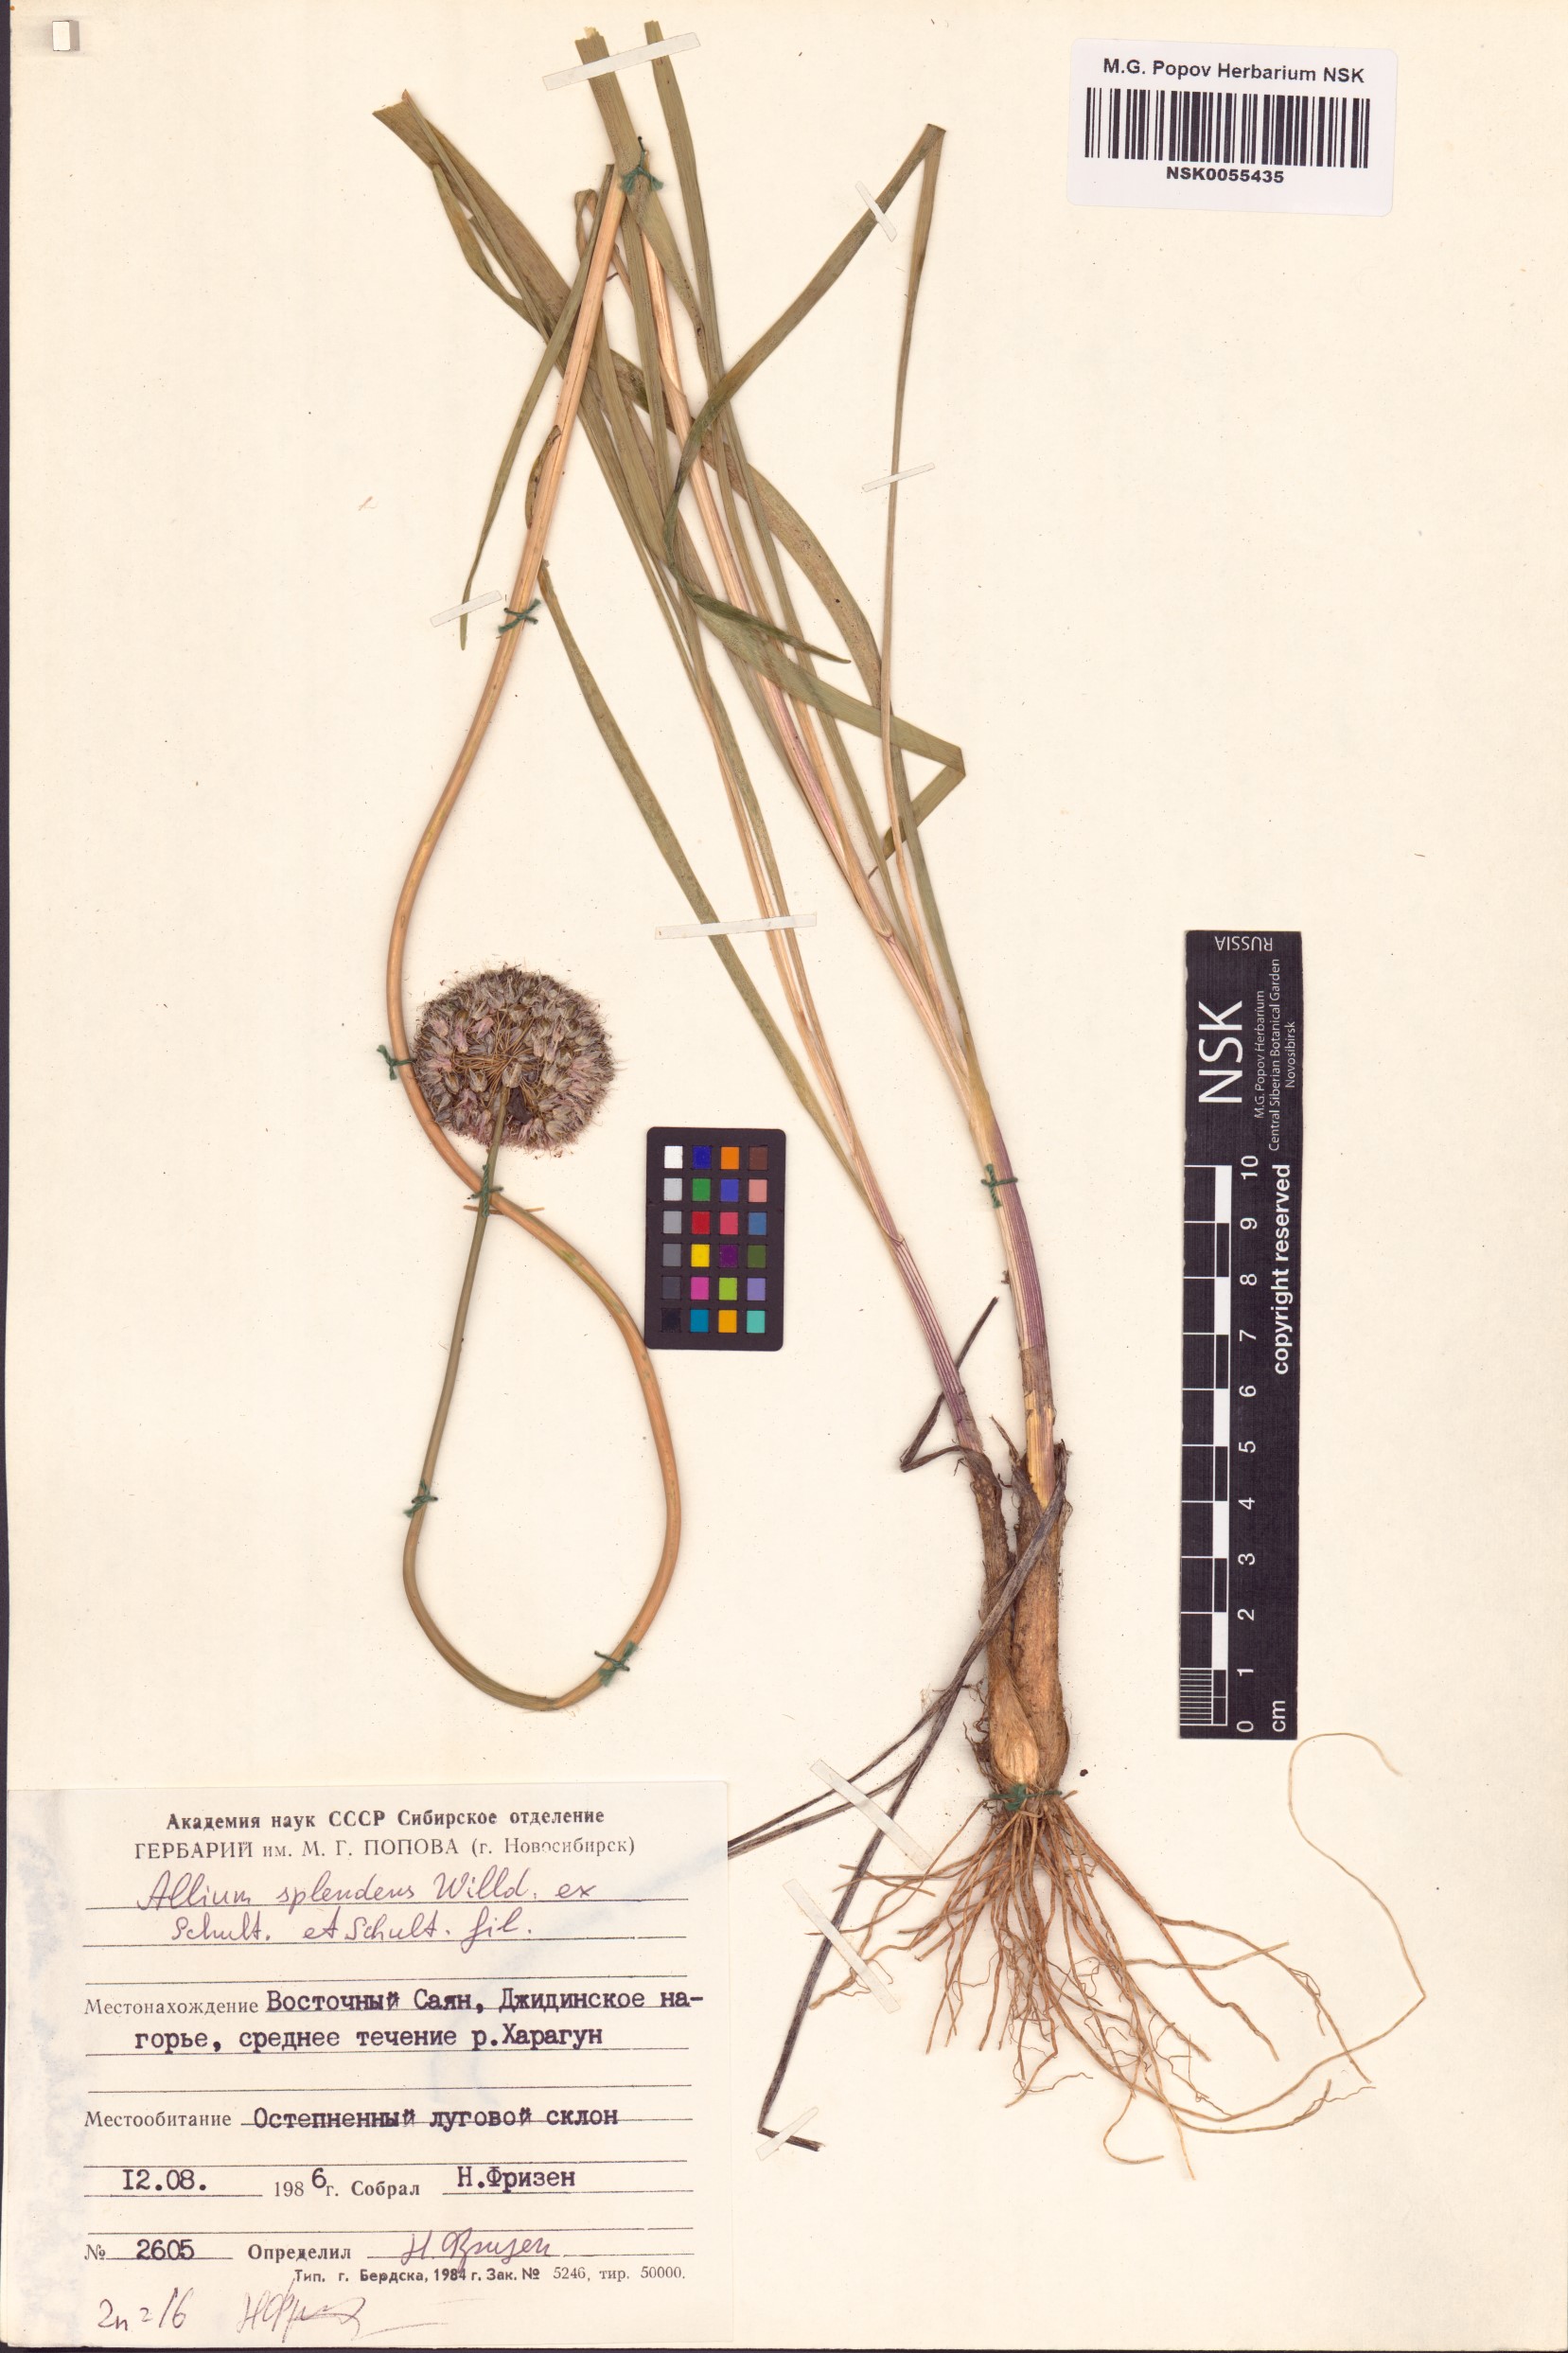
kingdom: Plantae
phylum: Tracheophyta
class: Liliopsida
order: Asparagales
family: Amaryllidaceae
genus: Allium
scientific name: Allium splendens
